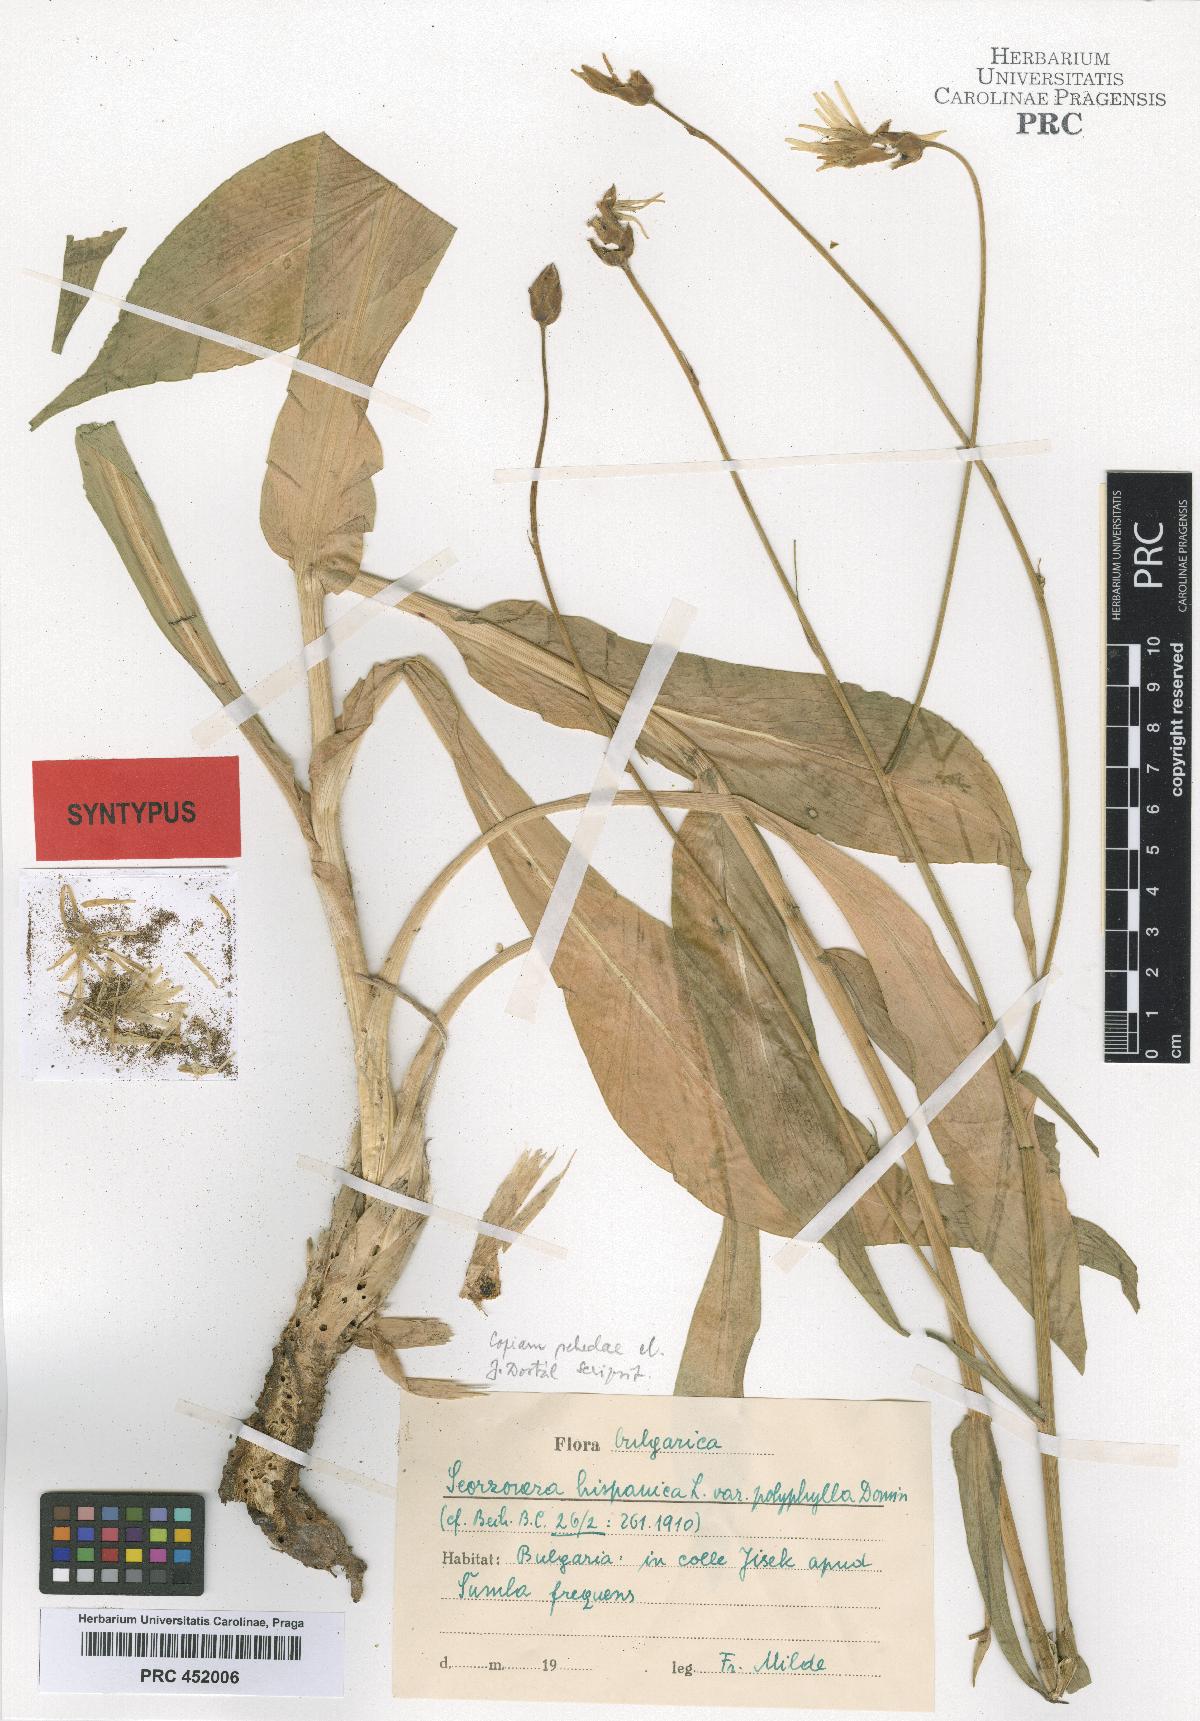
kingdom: Plantae
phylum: Tracheophyta
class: Magnoliopsida
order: Asterales
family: Asteraceae
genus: Pseudopodospermum
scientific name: Pseudopodospermum hispanicum
